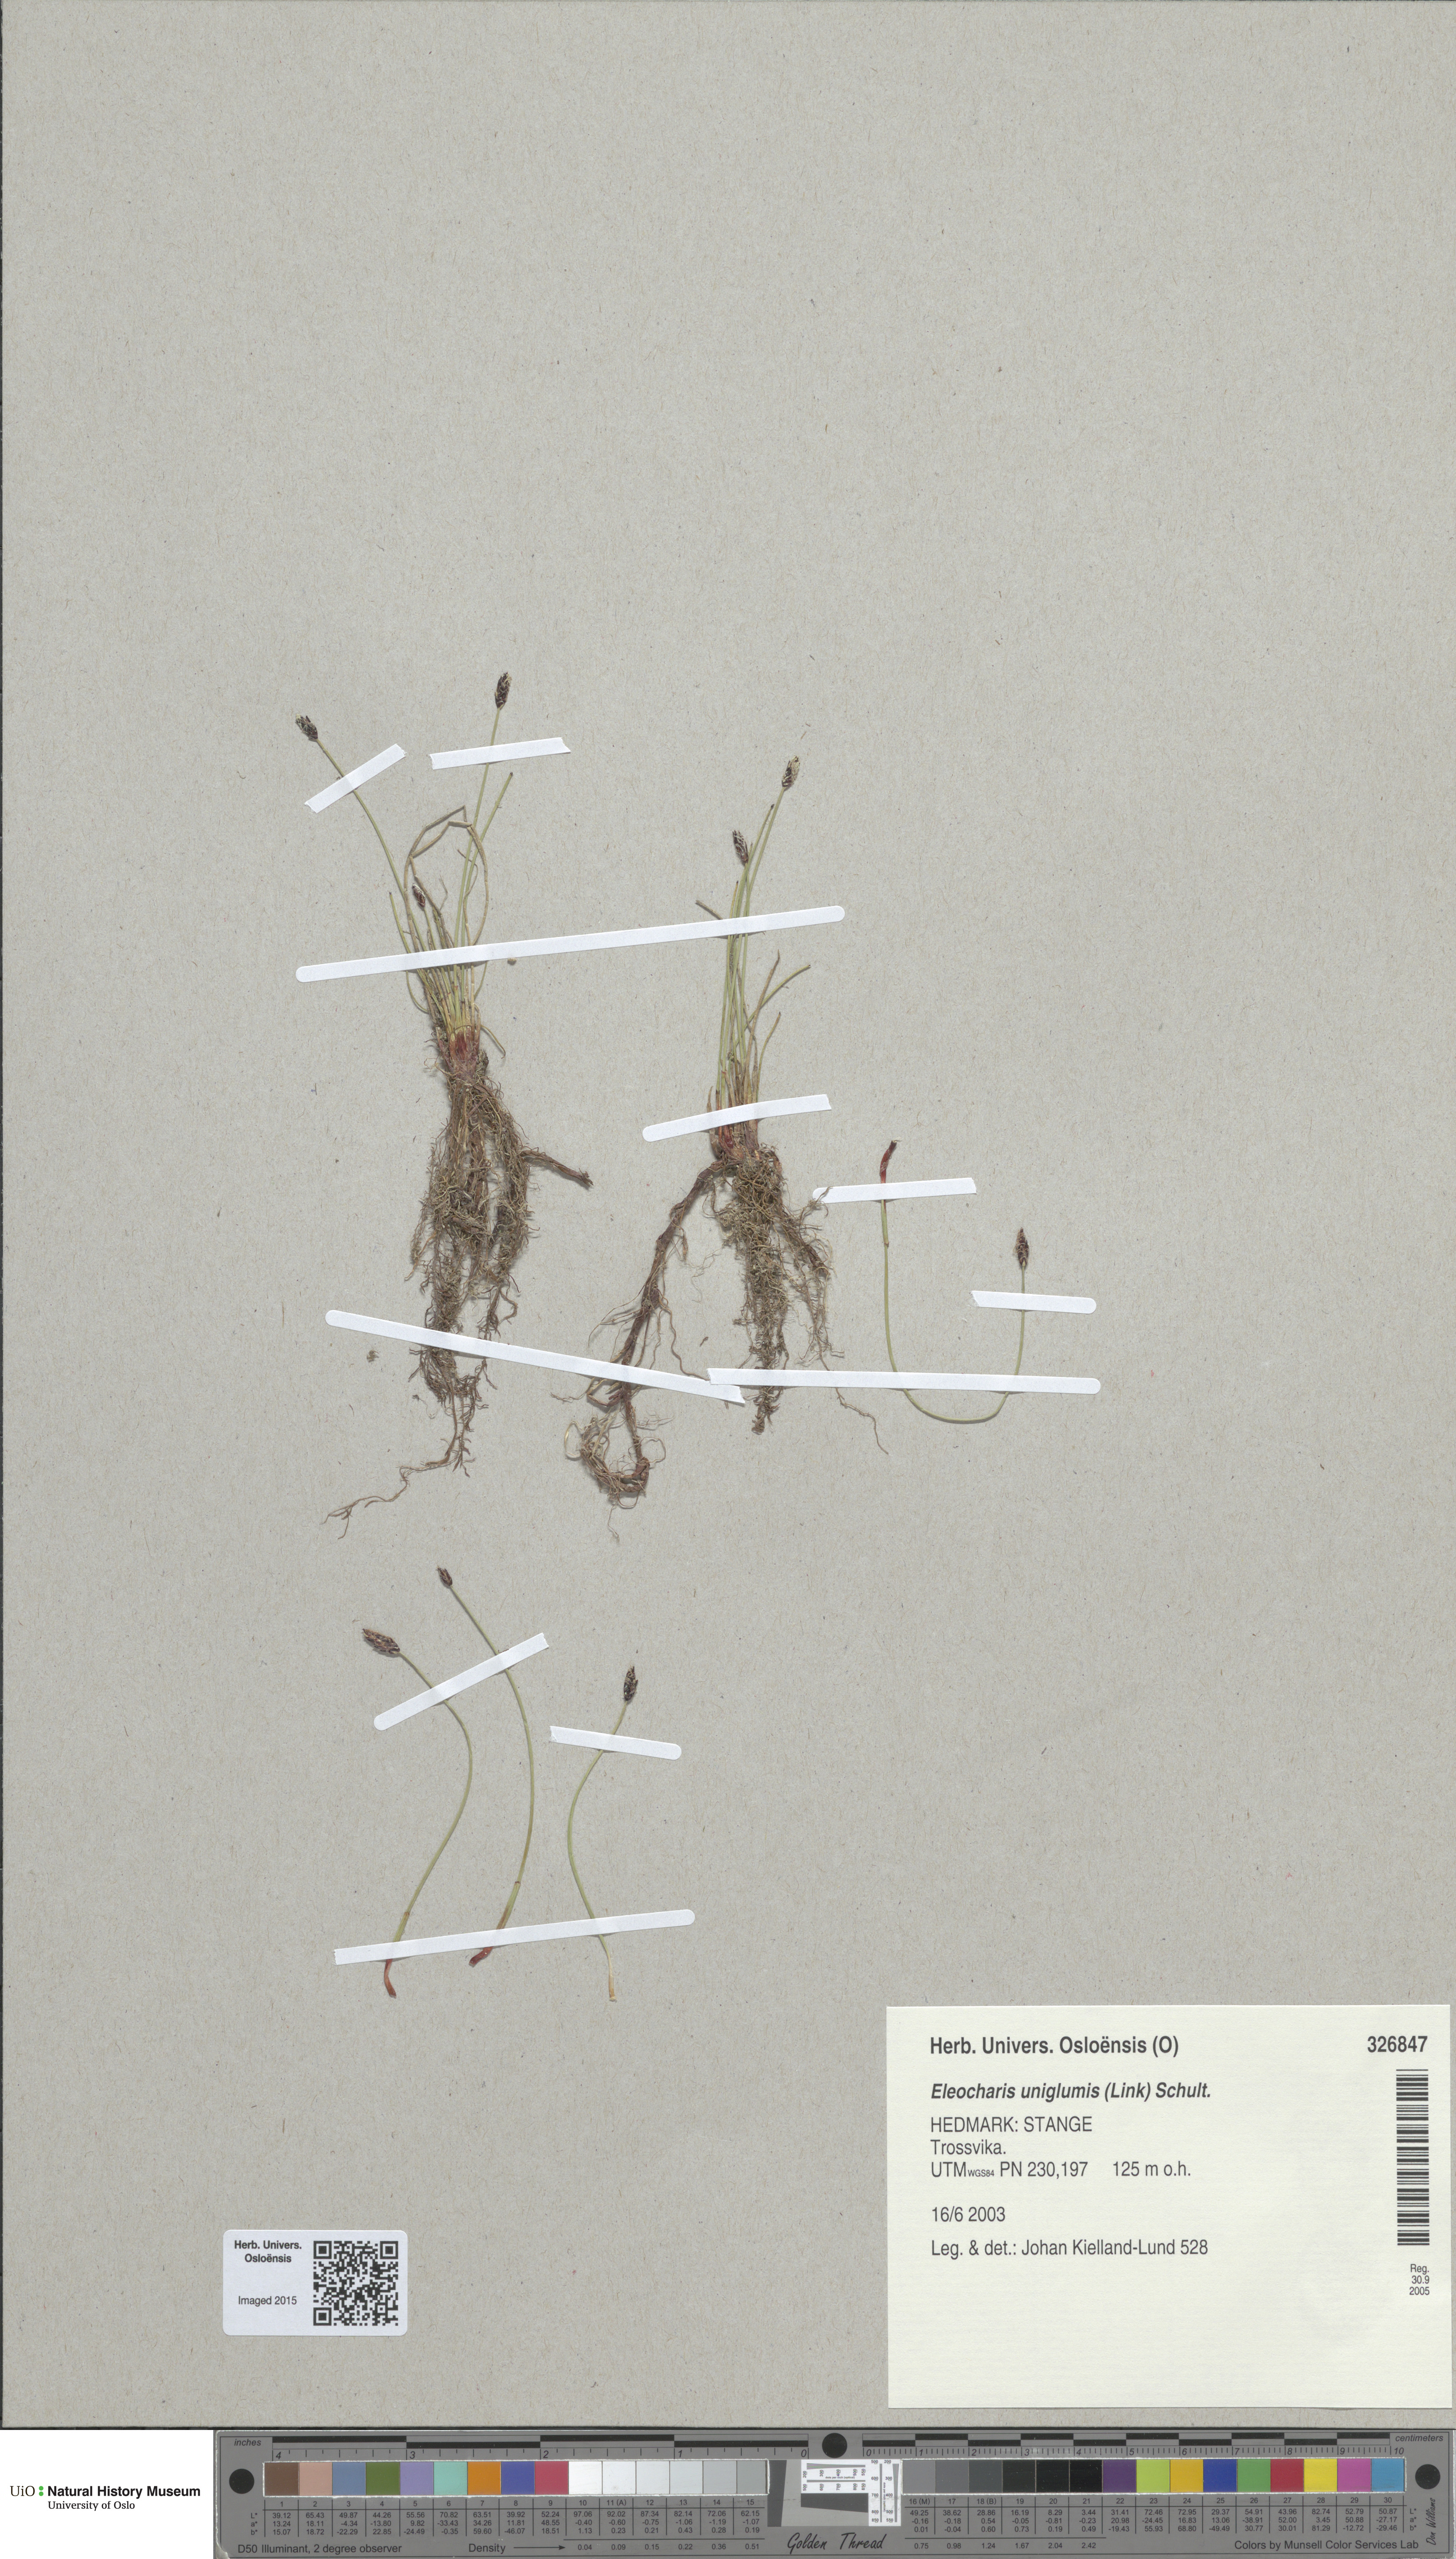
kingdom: Plantae
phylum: Tracheophyta
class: Liliopsida
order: Poales
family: Cyperaceae
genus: Eleocharis
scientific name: Eleocharis uniglumis
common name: Slender spike-rush
